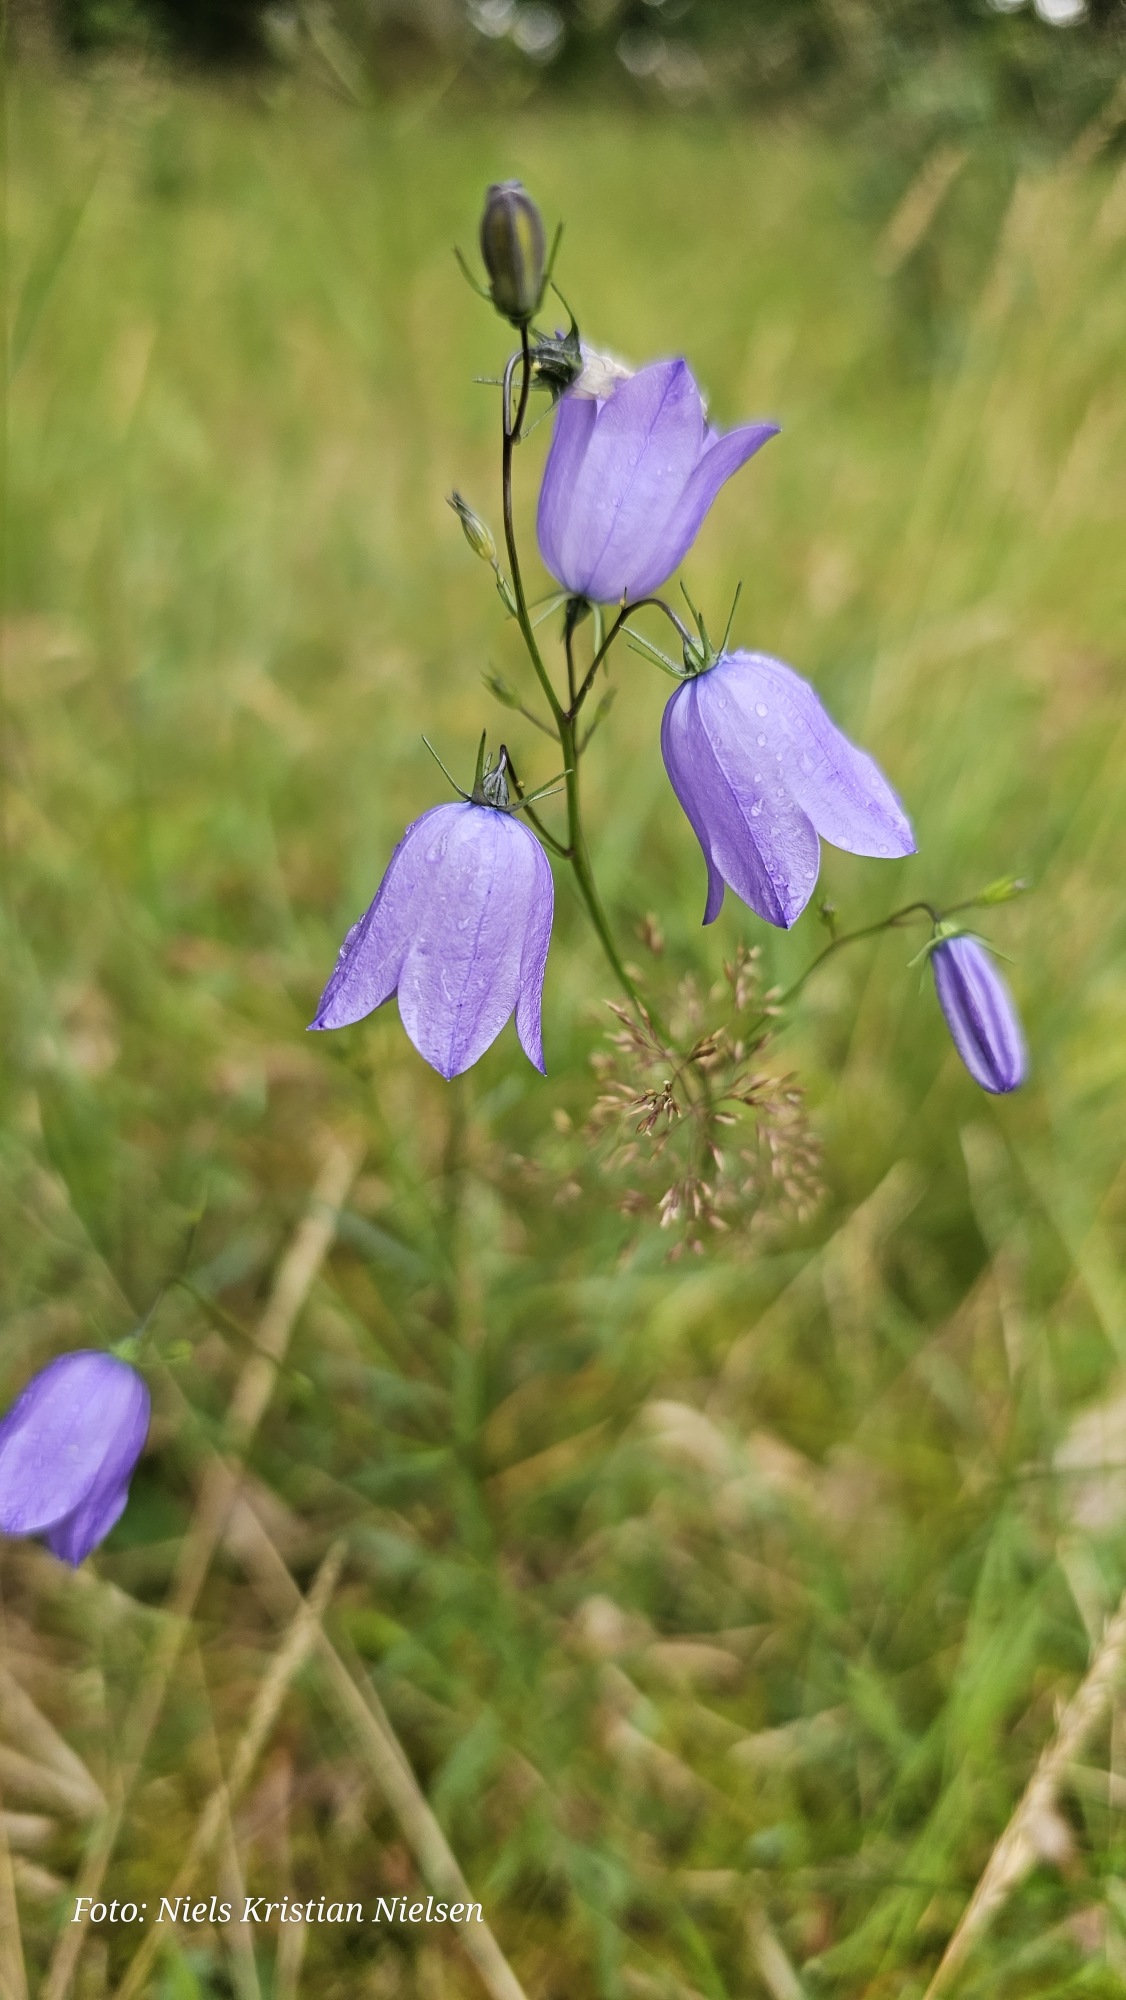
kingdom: Plantae
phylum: Tracheophyta
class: Magnoliopsida
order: Asterales
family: Campanulaceae
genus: Campanula
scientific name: Campanula rotundifolia
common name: Liden klokke
